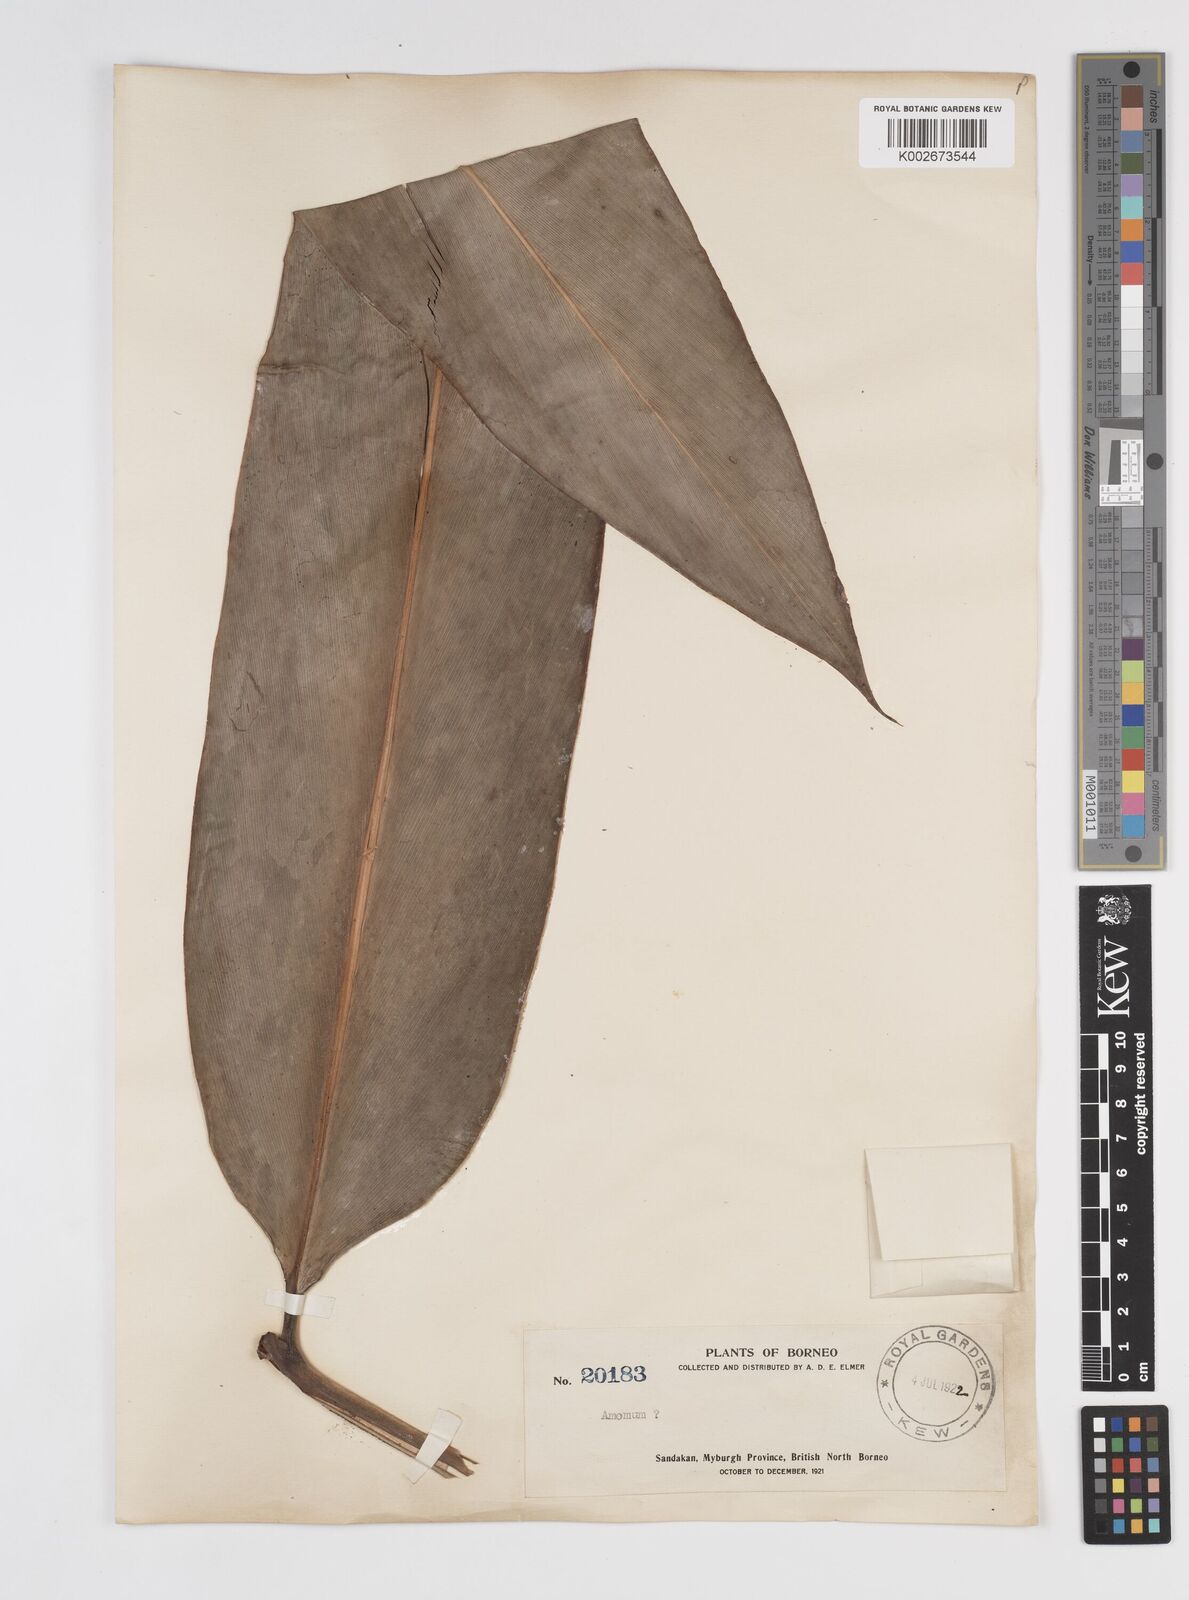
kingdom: Plantae
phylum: Tracheophyta
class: Liliopsida
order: Zingiberales
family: Zingiberaceae
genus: Amomum
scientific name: Amomum
